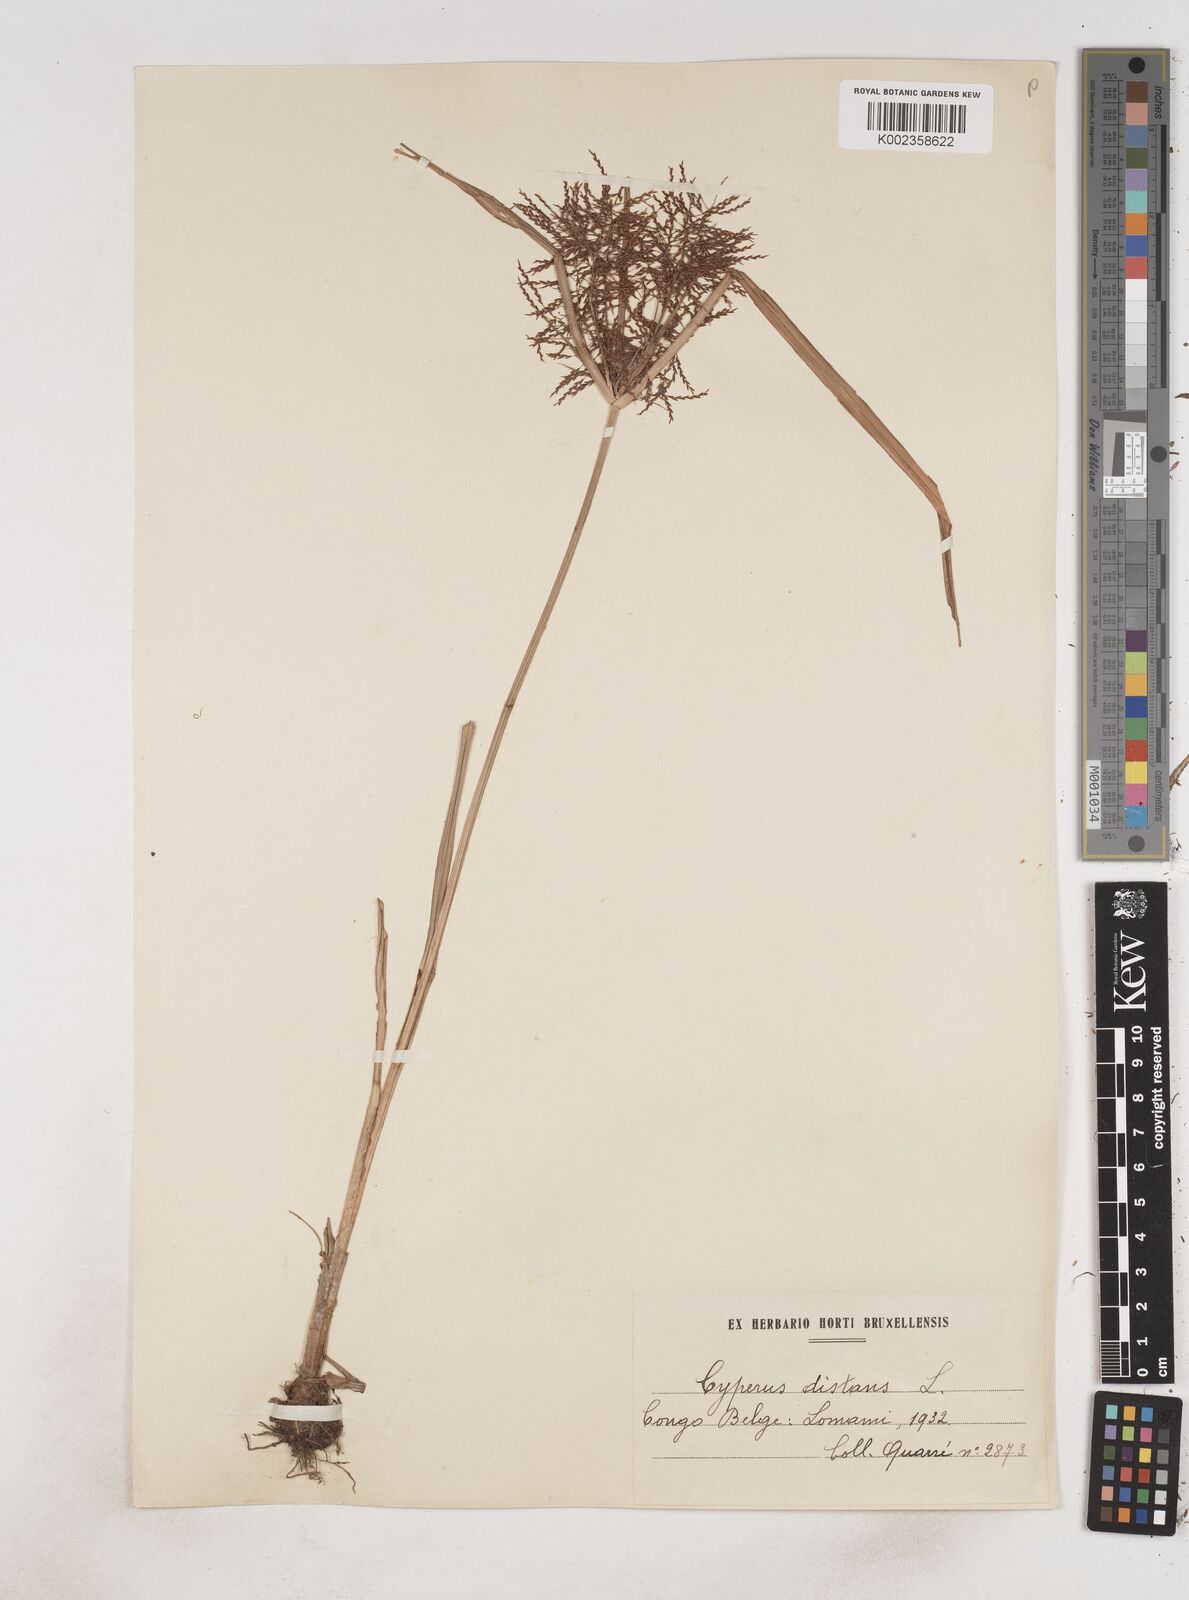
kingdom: Plantae
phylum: Tracheophyta
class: Liliopsida
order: Poales
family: Cyperaceae
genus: Cyperus
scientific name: Cyperus distans
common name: Slender cyperus
